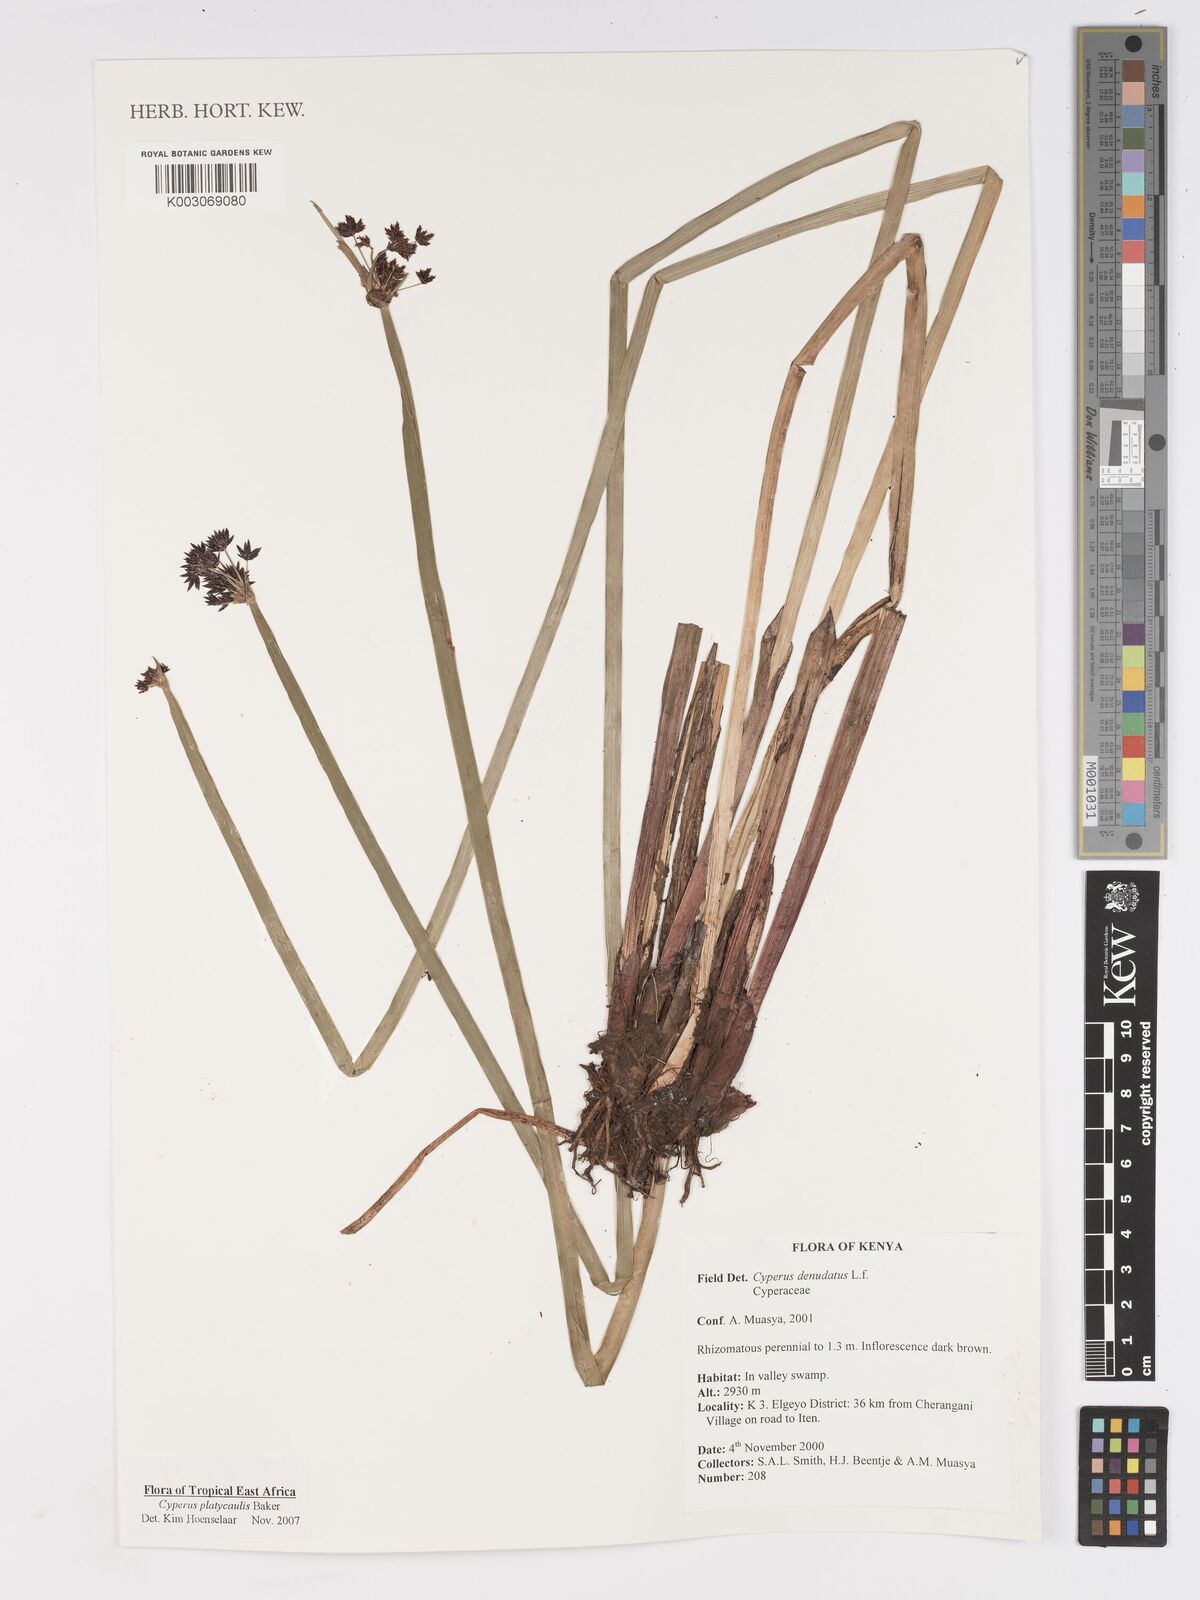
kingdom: Plantae
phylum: Tracheophyta
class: Liliopsida
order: Poales
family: Cyperaceae
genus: Cyperus
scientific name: Cyperus platycaulis
